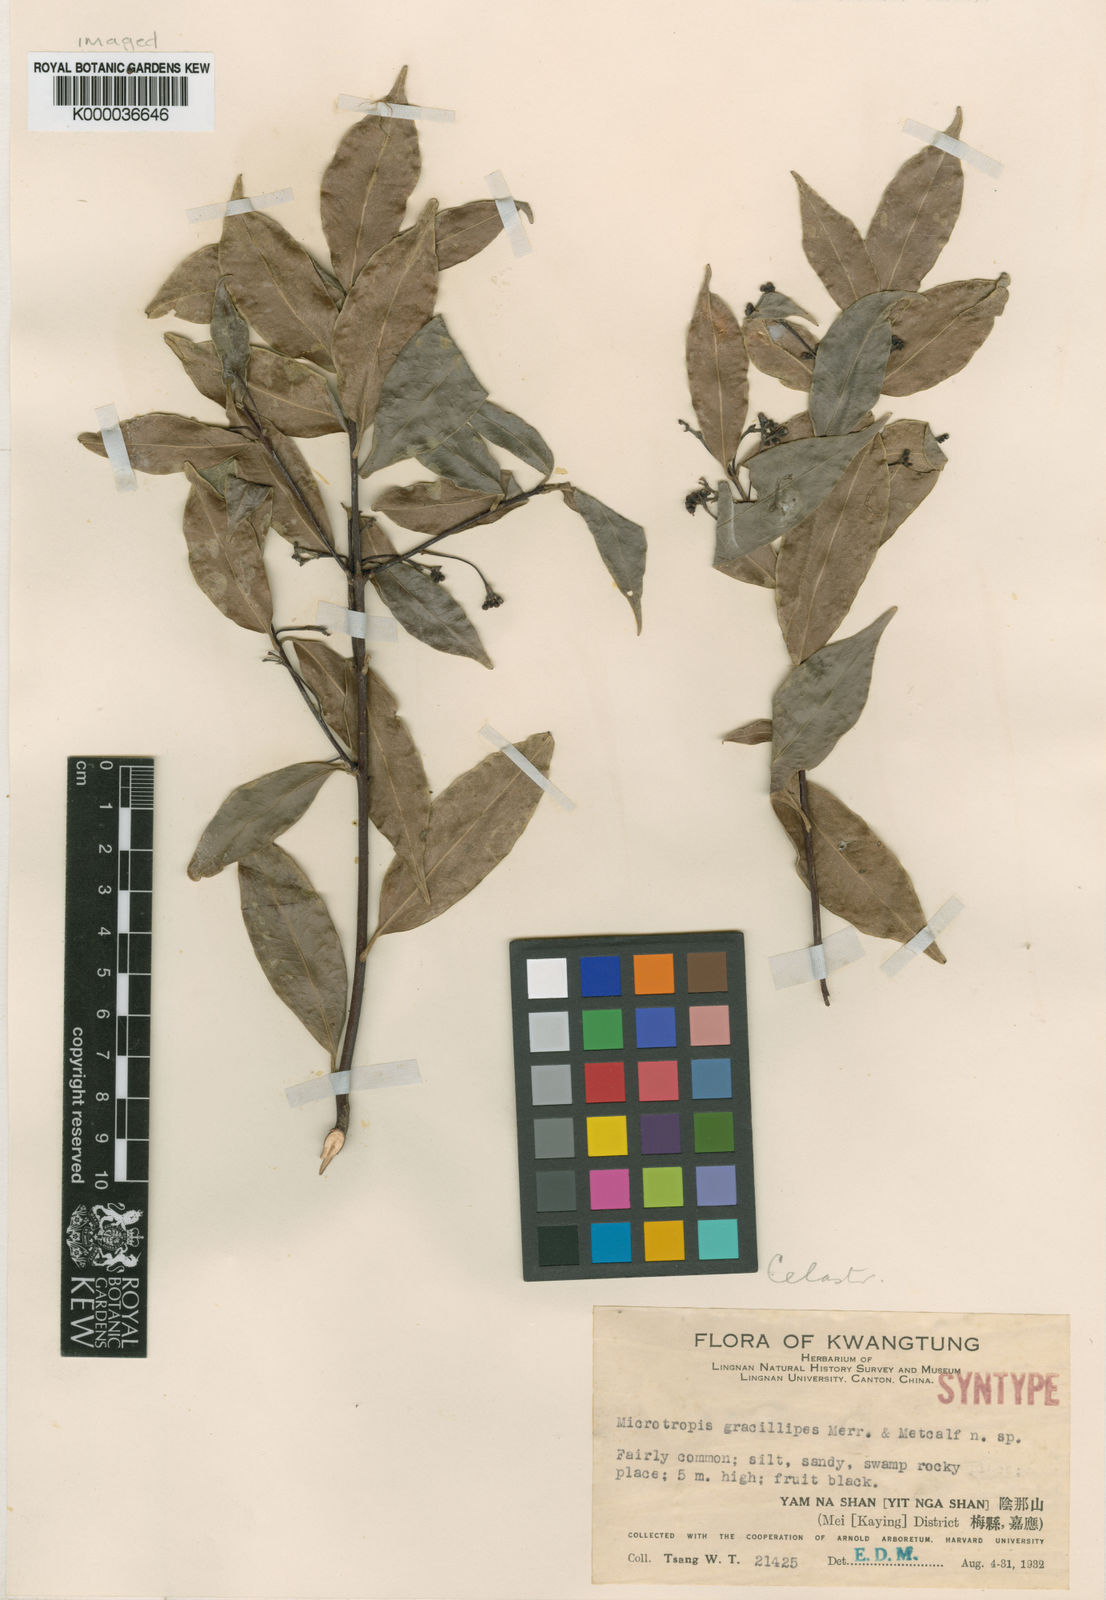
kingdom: Plantae
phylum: Tracheophyta
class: Magnoliopsida
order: Celastrales
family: Celastraceae
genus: Microtropis
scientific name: Microtropis gracilipes
